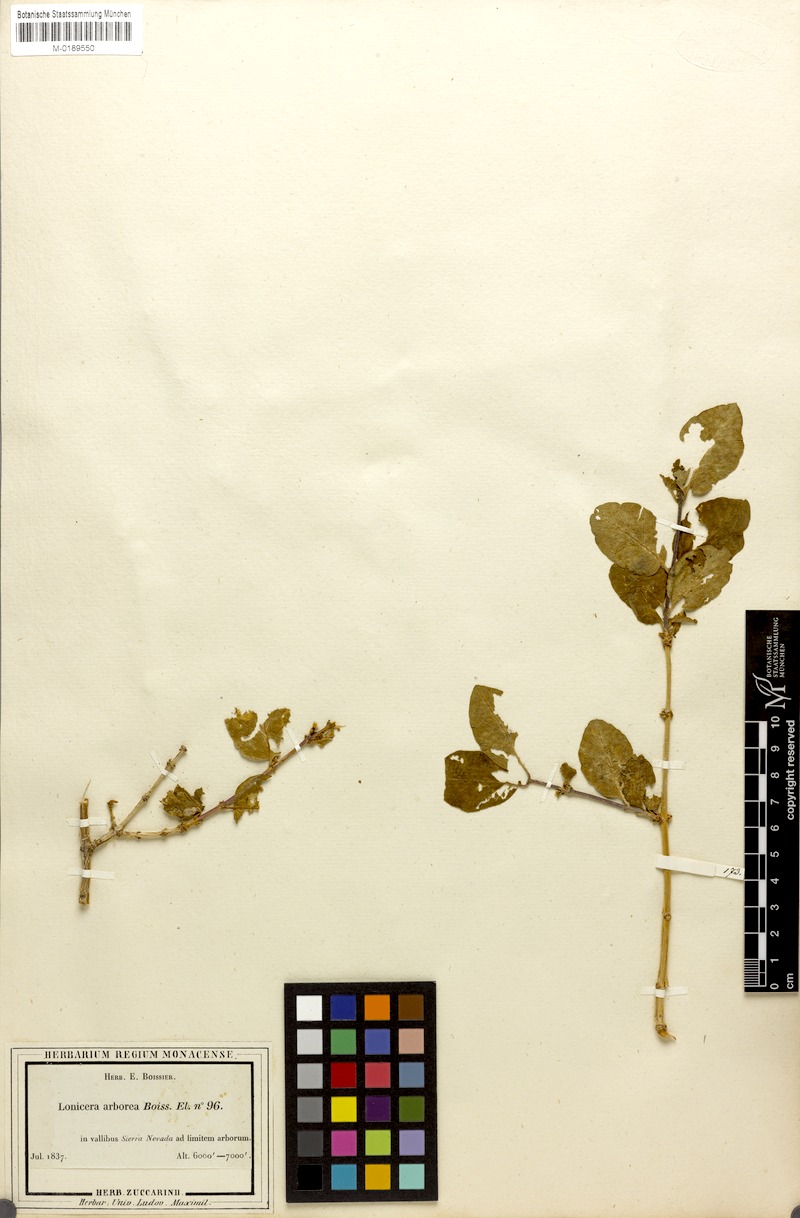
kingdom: Plantae
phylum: Tracheophyta
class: Magnoliopsida
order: Dipsacales
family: Caprifoliaceae
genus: Lonicera
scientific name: Lonicera arborea
